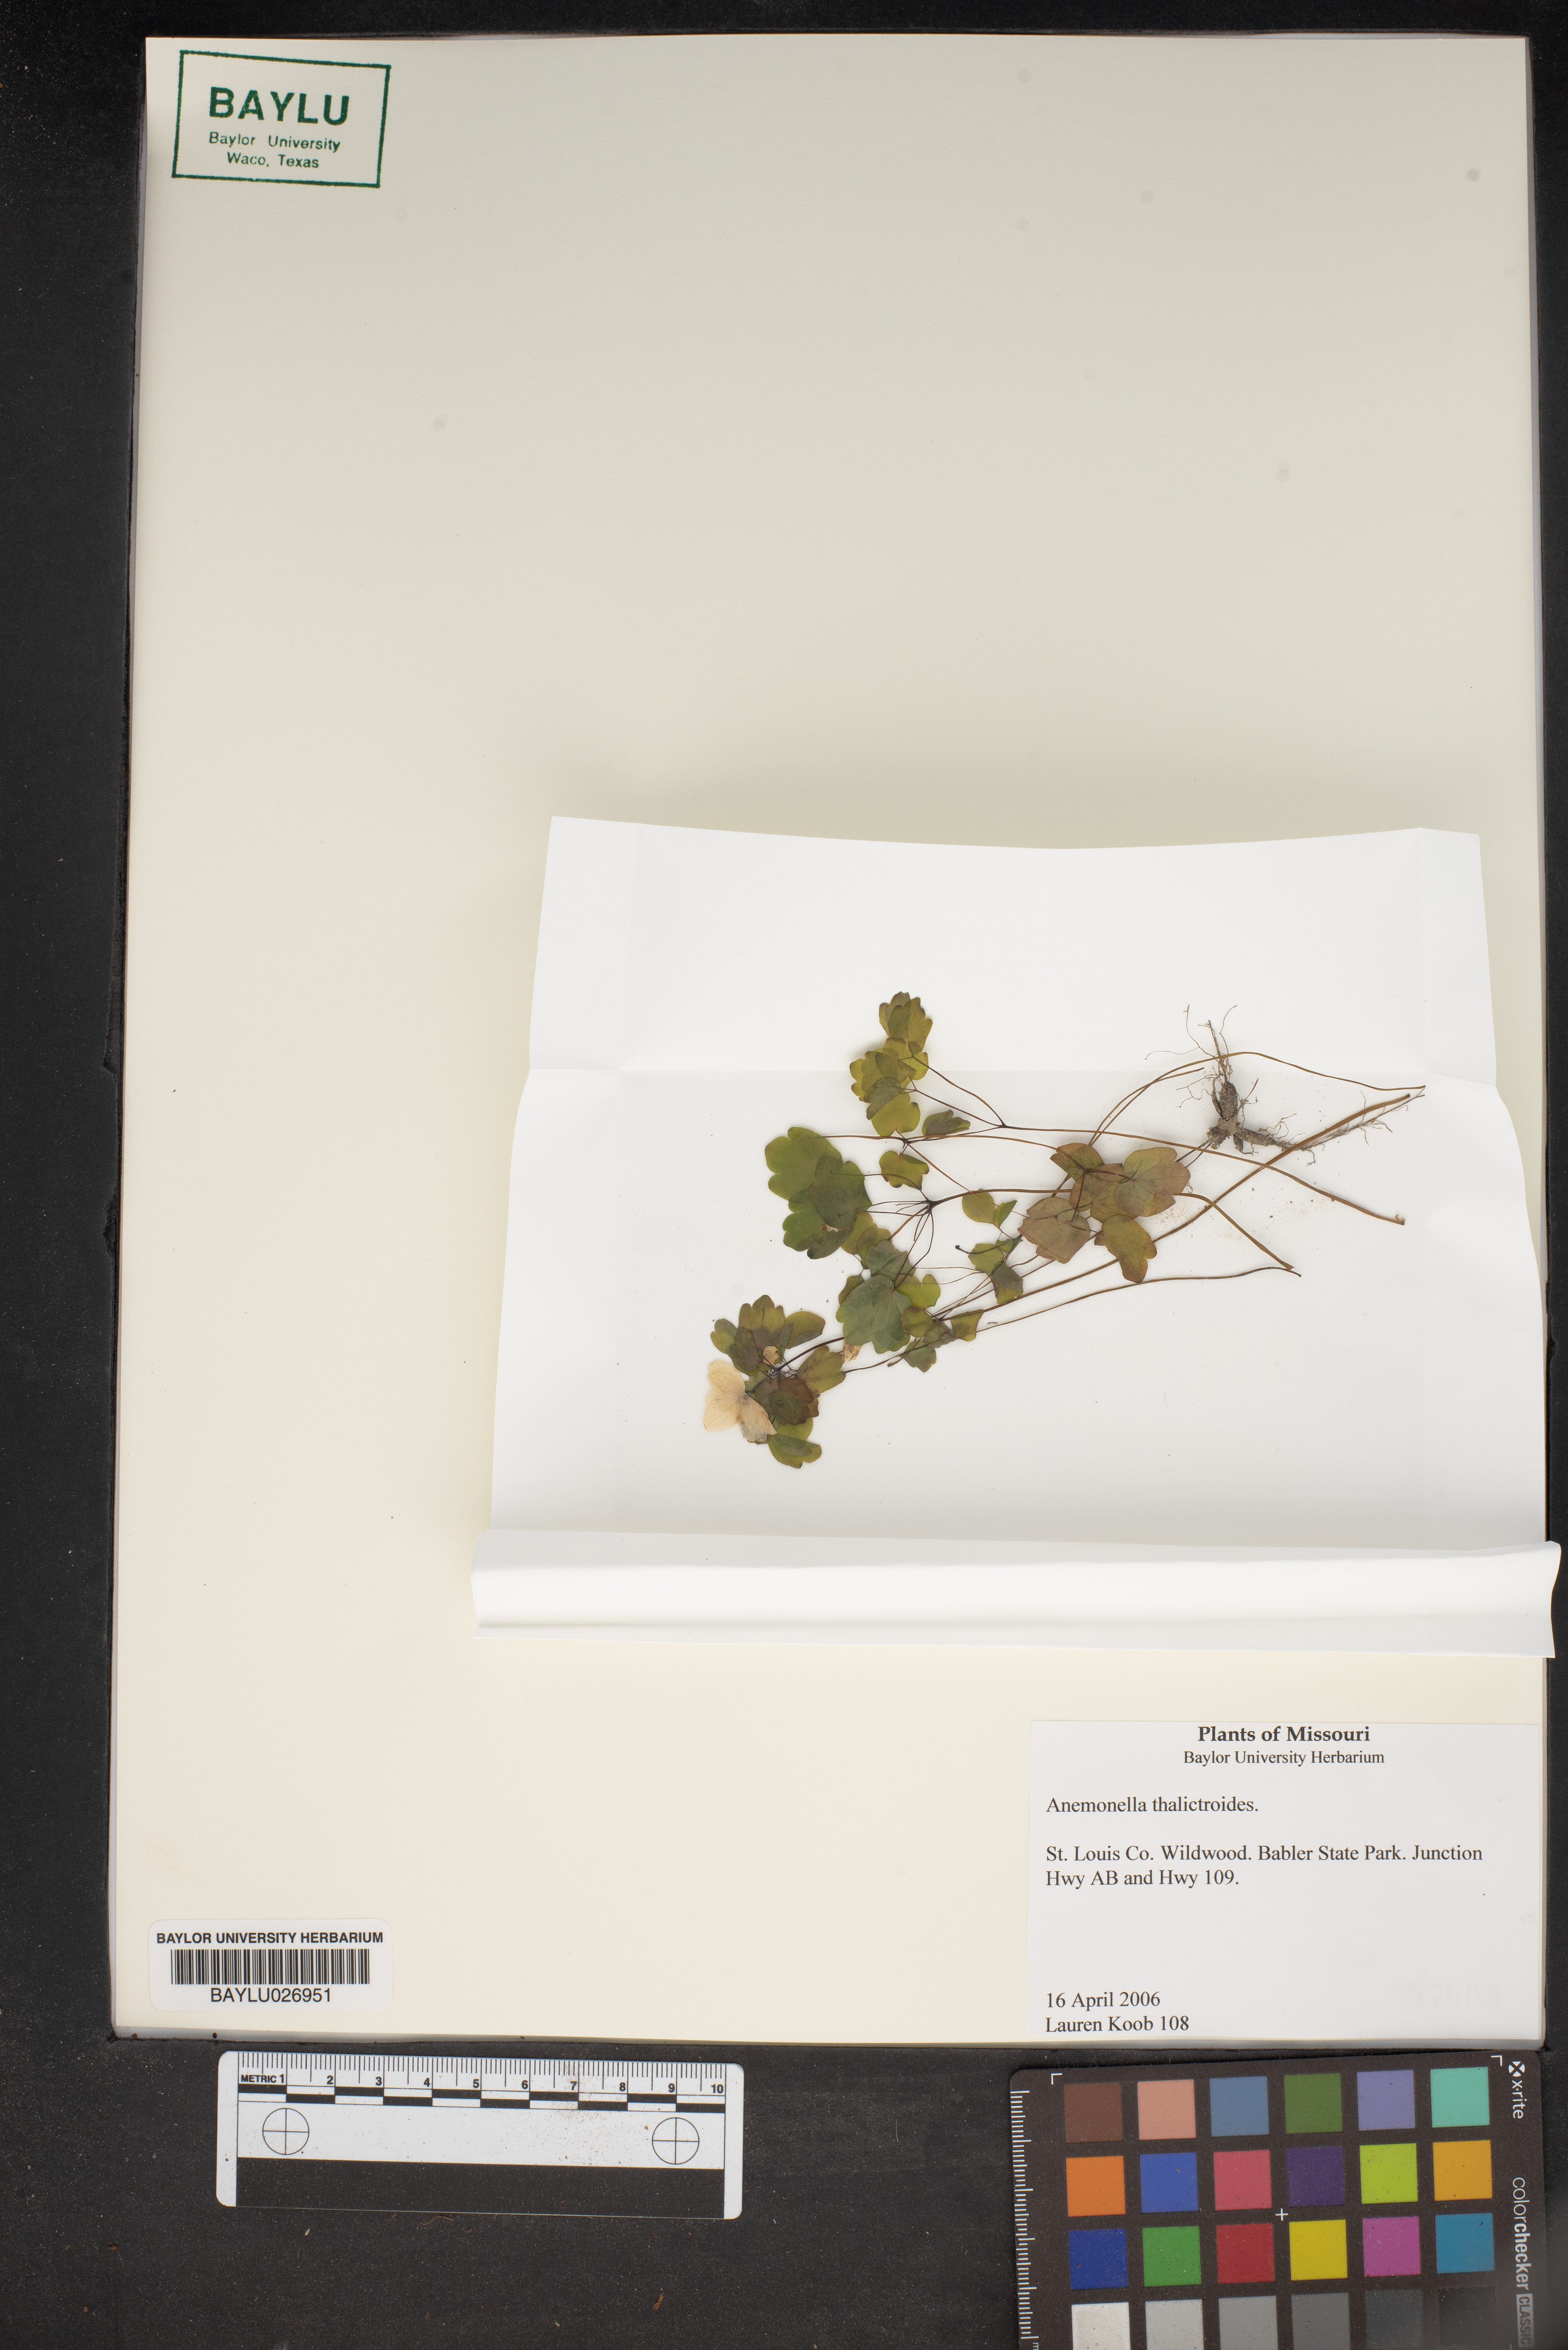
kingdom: Plantae
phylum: Tracheophyta
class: Magnoliopsida
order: Ranunculales
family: Ranunculaceae
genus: Thalictrum
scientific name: Thalictrum thalictroides
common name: Rue-anemone
